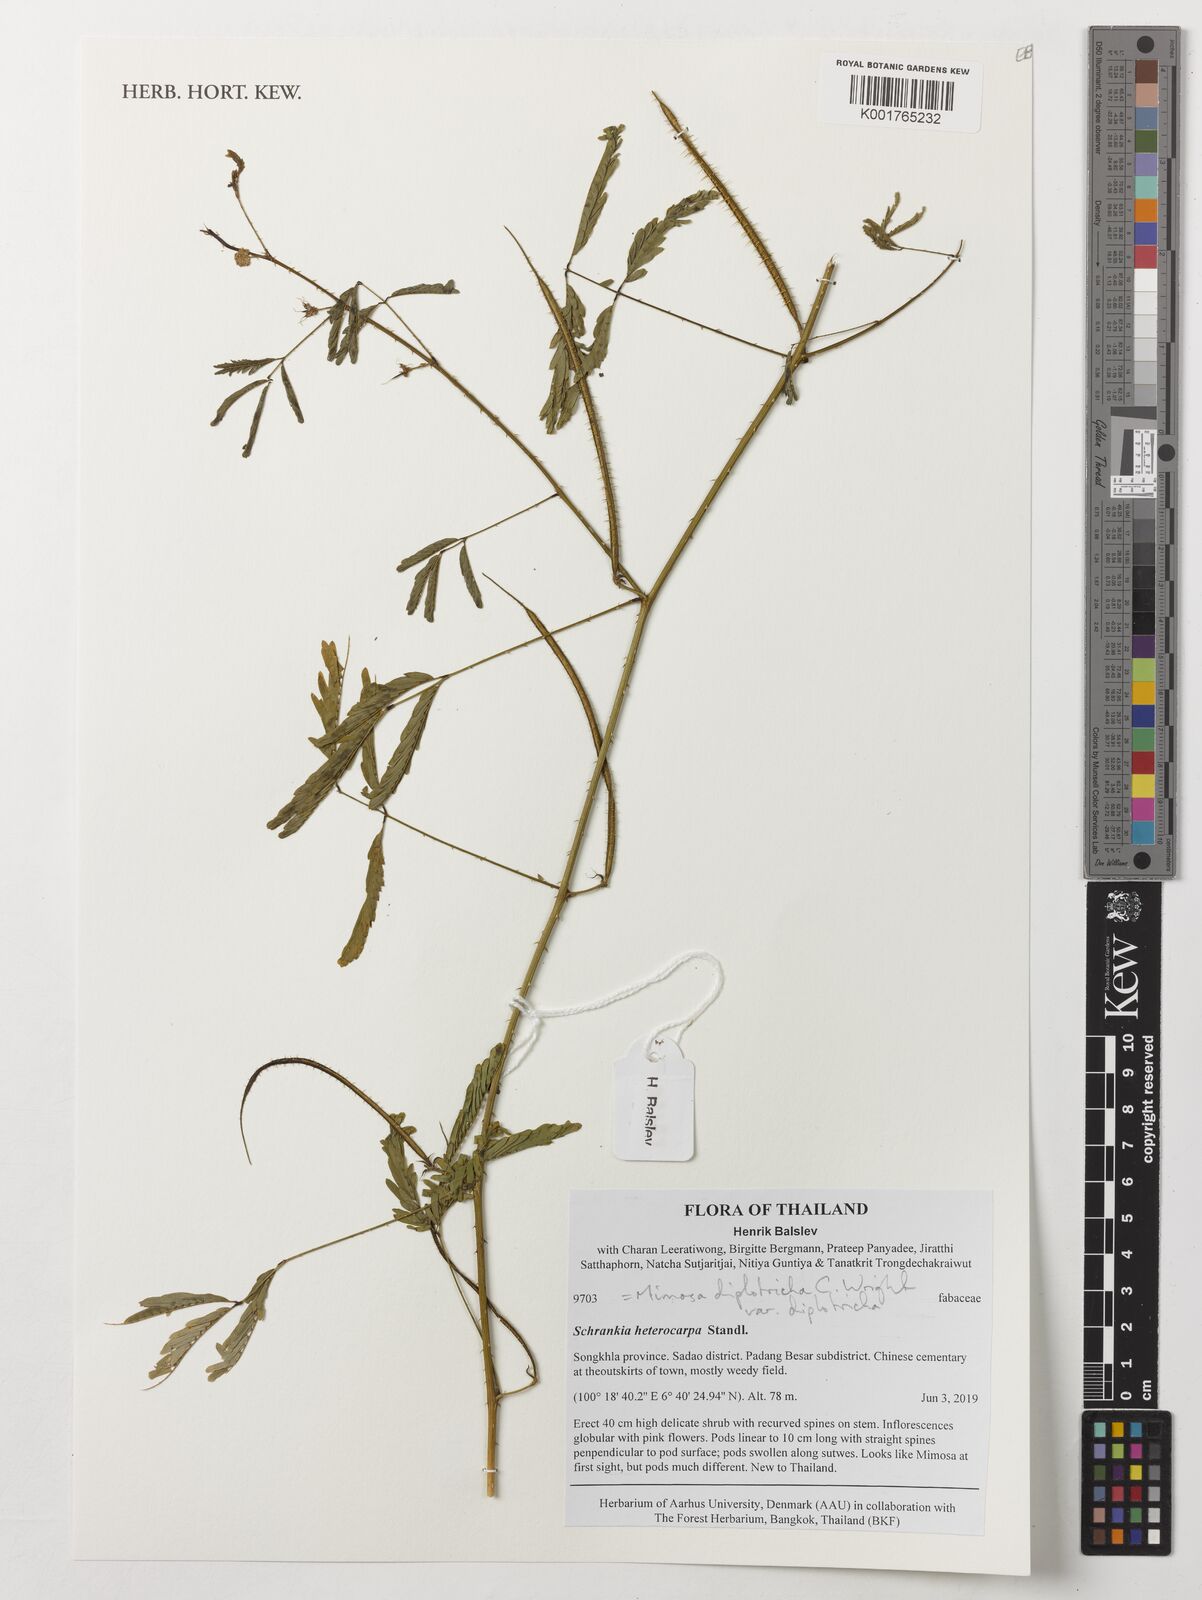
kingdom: Plantae
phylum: Tracheophyta
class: Magnoliopsida
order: Fabales
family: Fabaceae
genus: Mimosa
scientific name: Mimosa diplotricha
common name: Giant sensitive-plant
